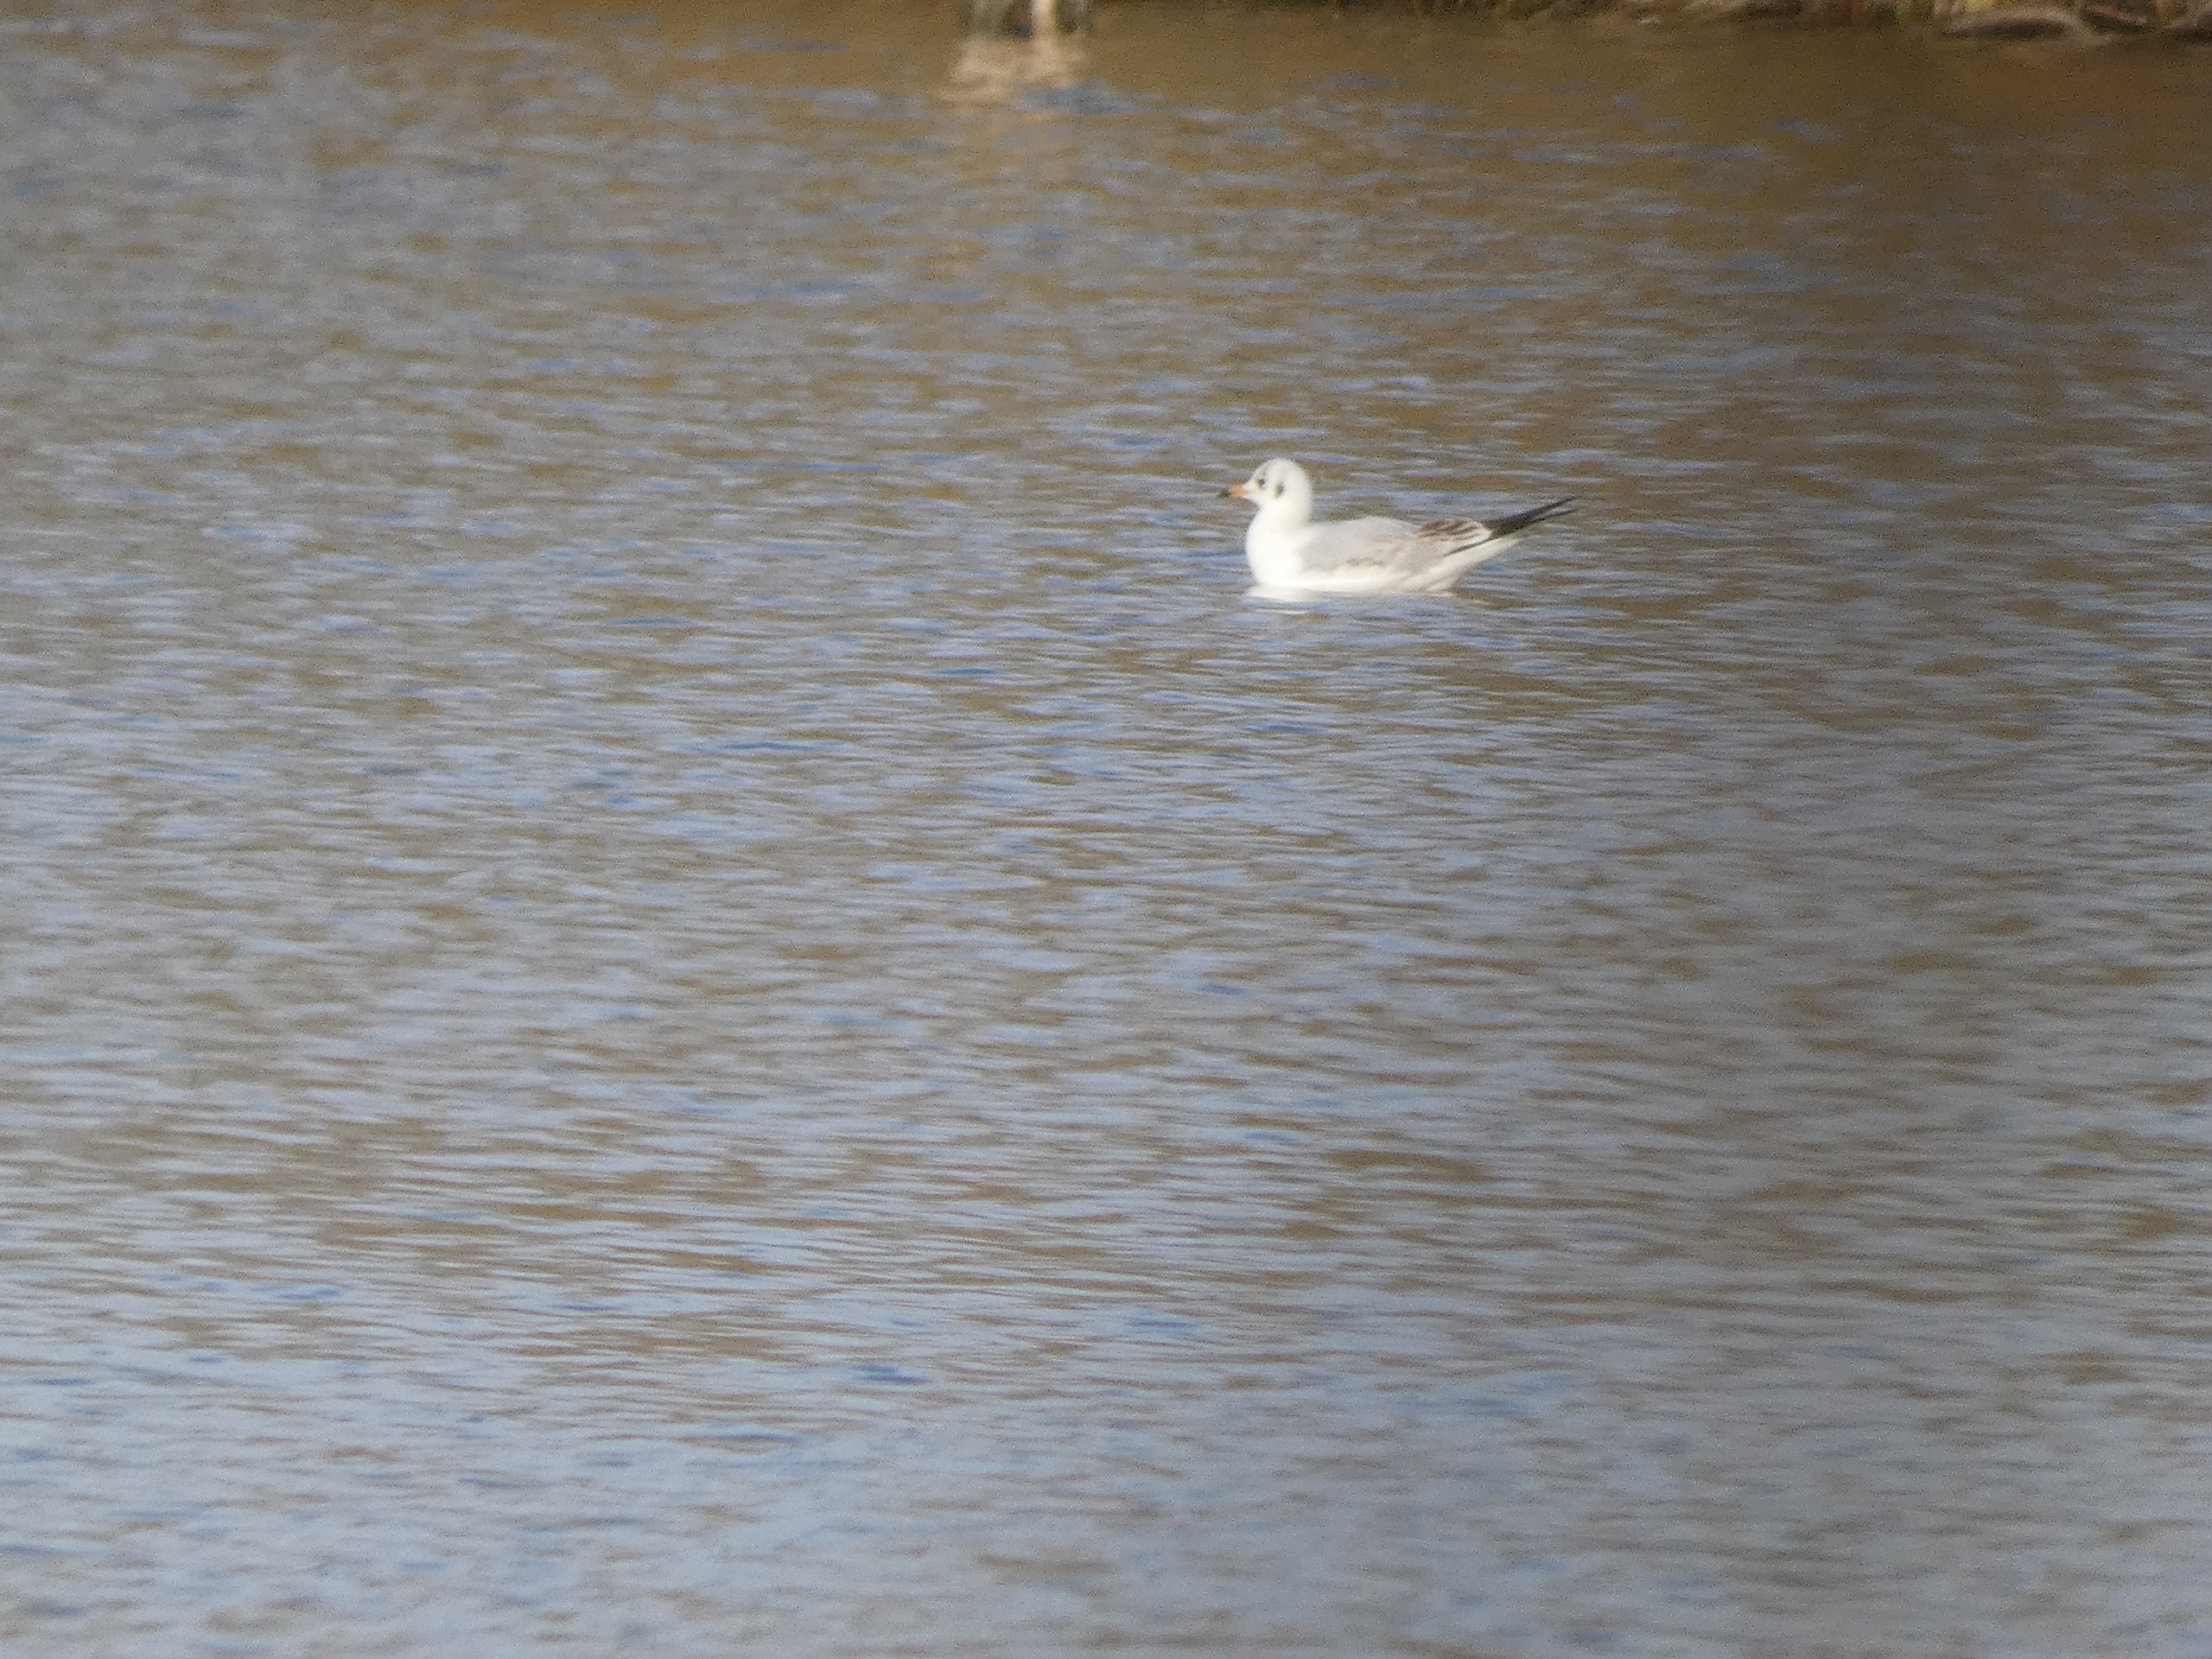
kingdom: Animalia
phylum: Chordata
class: Aves
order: Charadriiformes
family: Laridae
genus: Chroicocephalus
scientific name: Chroicocephalus ridibundus
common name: Hættemåge
